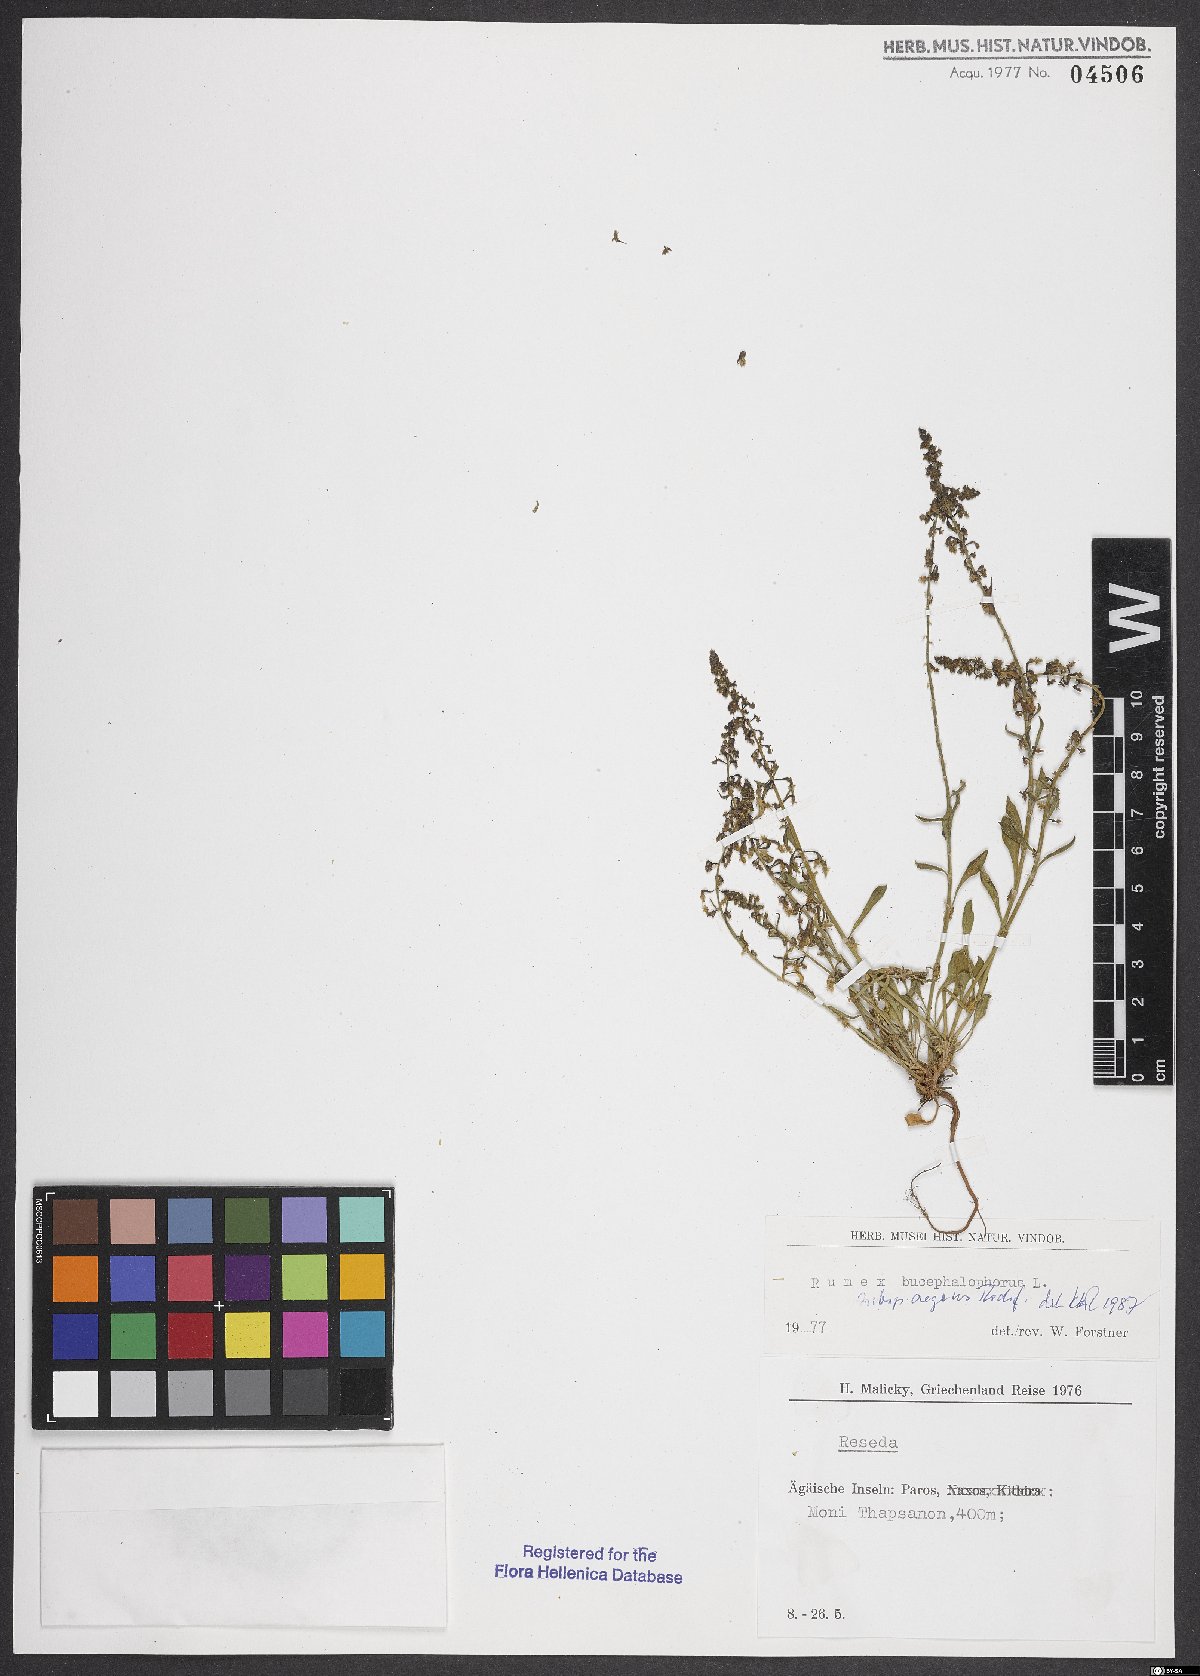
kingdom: Plantae
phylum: Tracheophyta
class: Magnoliopsida
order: Caryophyllales
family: Polygonaceae
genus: Rumex
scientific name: Rumex bucephalophorus
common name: Red dock
